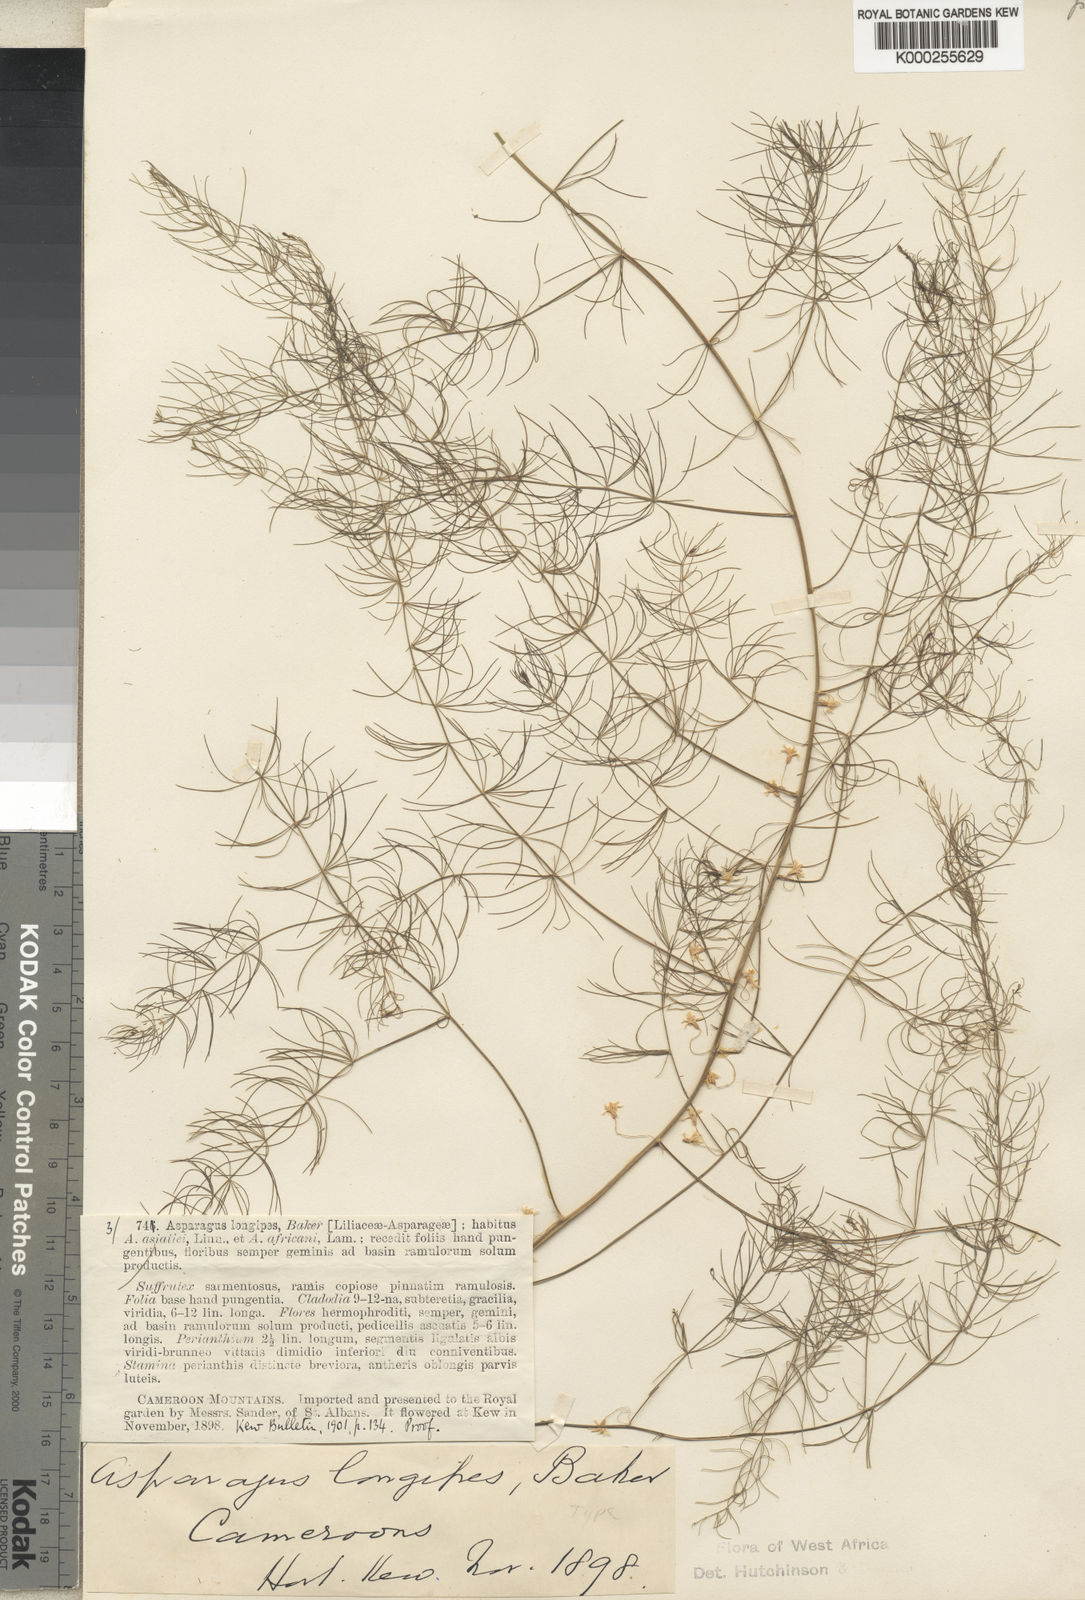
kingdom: Plantae
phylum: Tracheophyta
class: Liliopsida
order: Asparagales
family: Asparagaceae
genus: Asparagus
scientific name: Asparagus longipes
